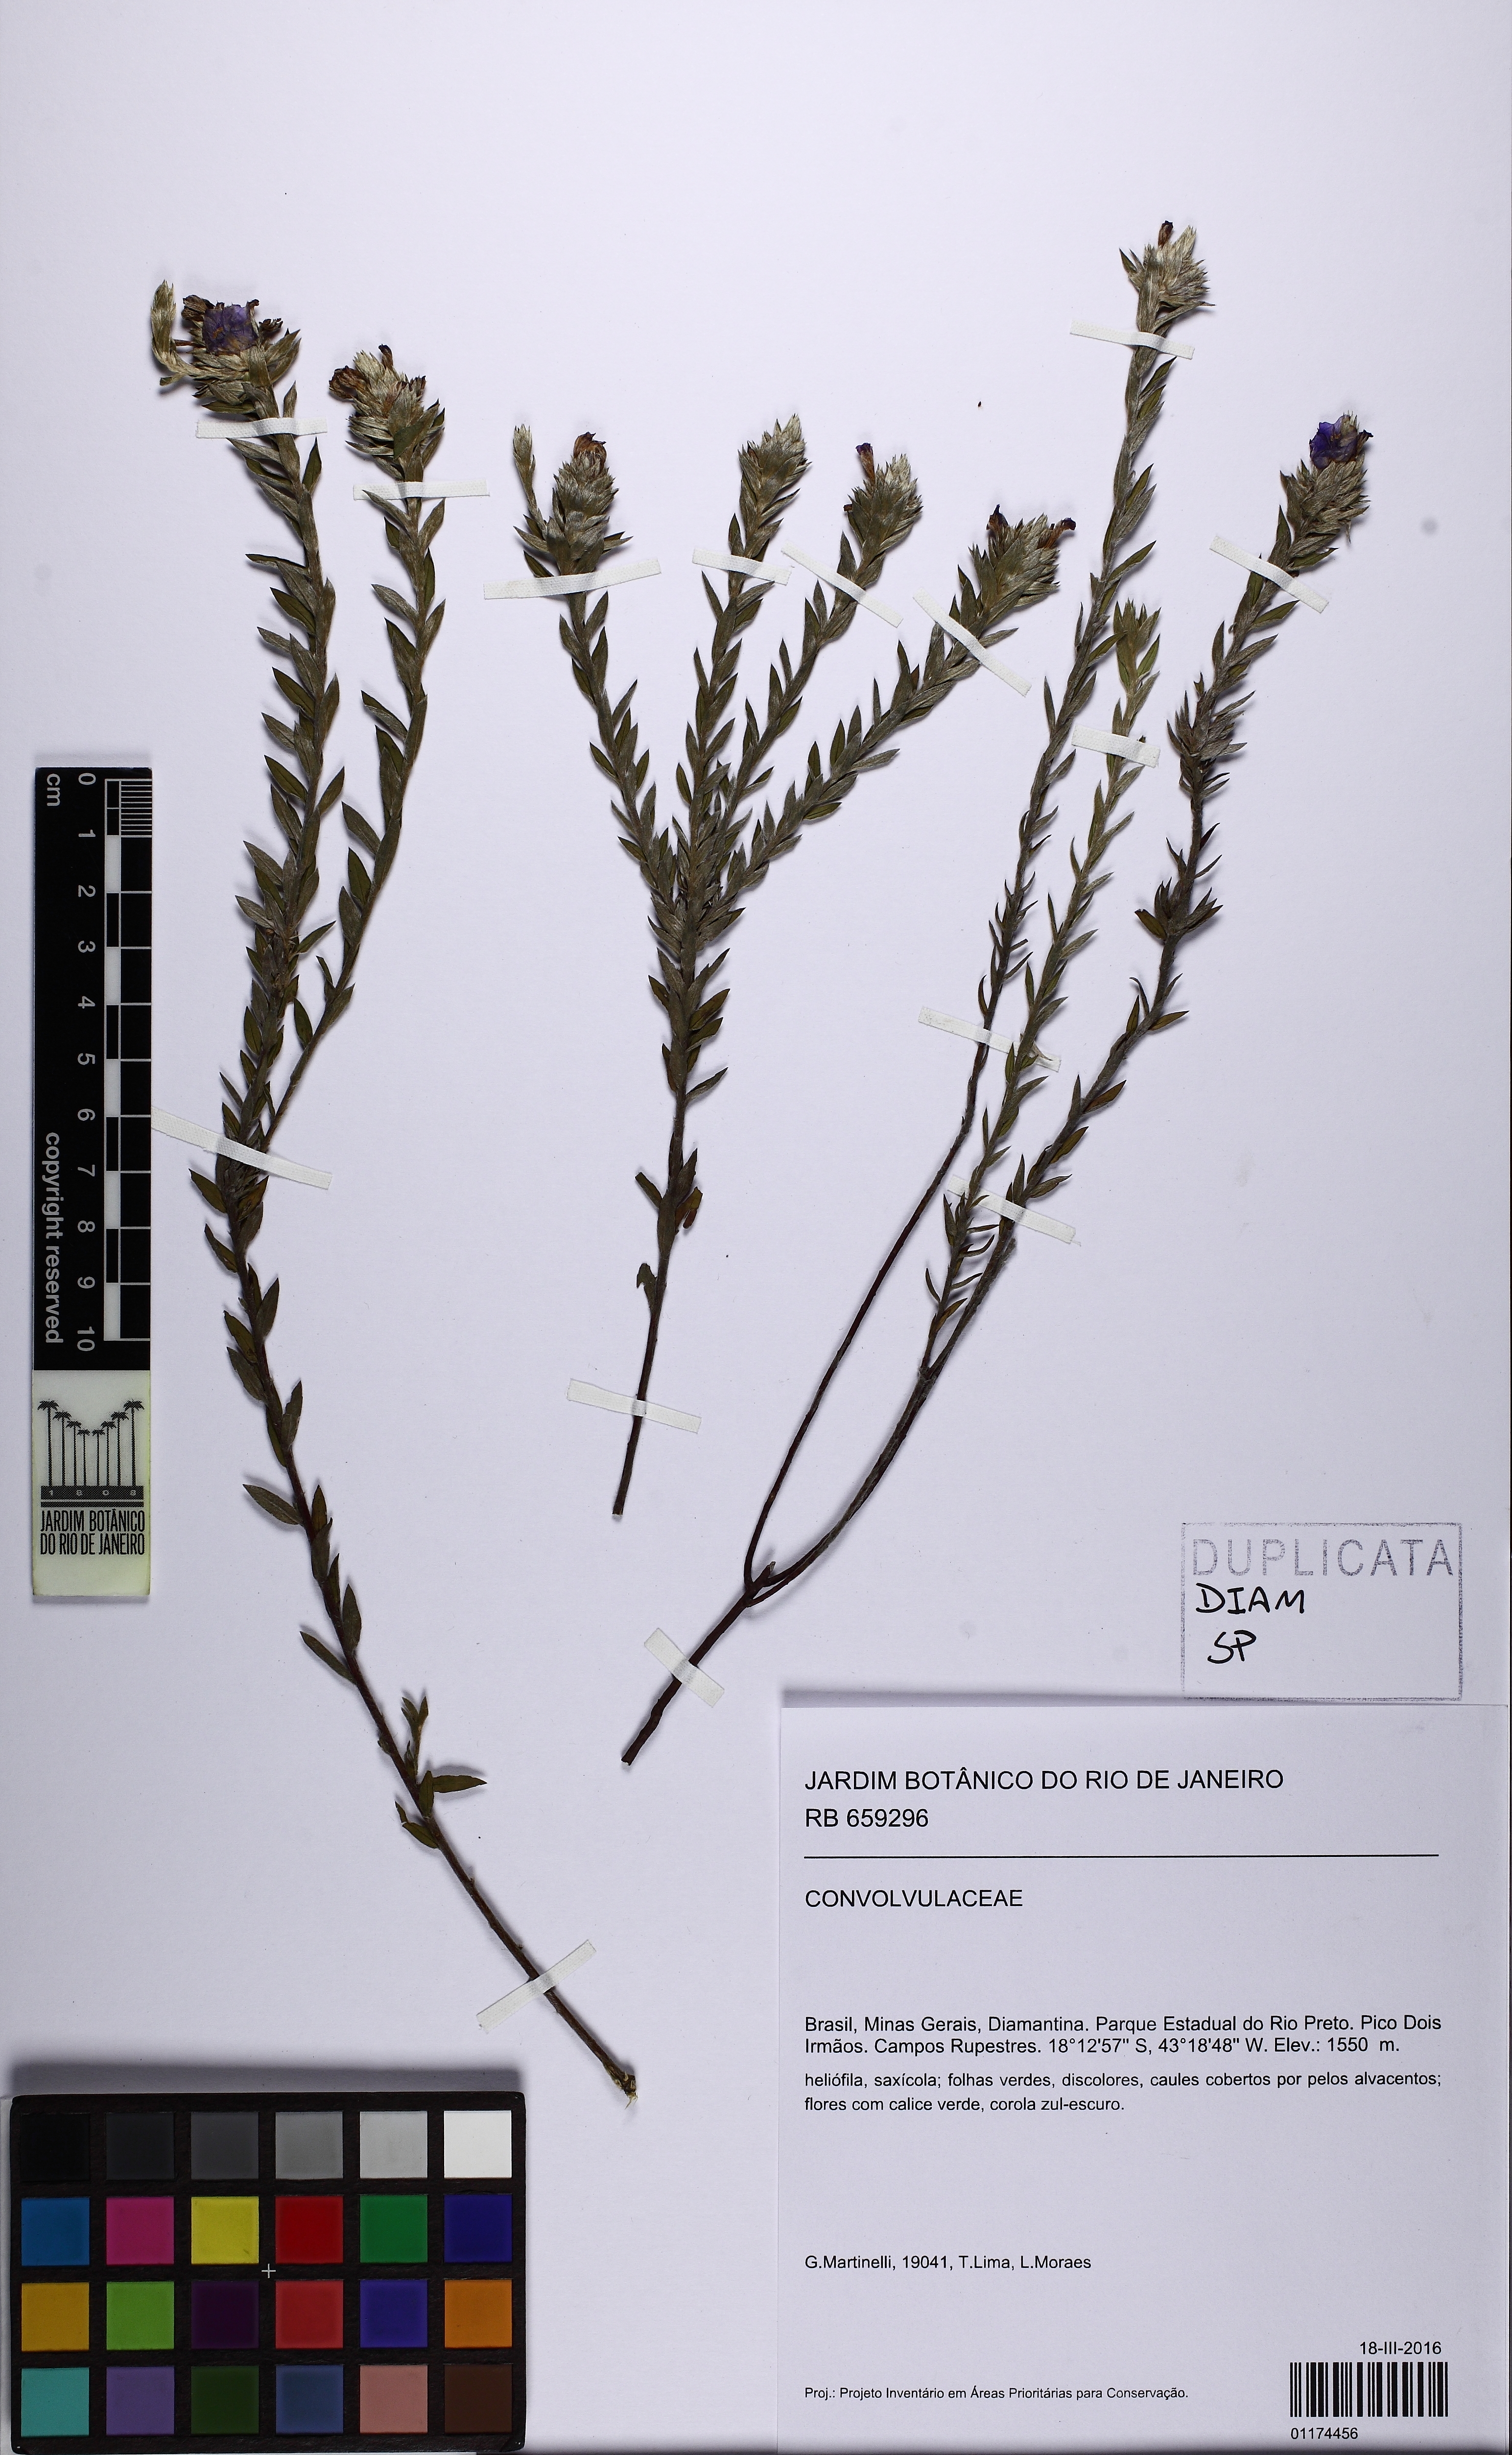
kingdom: Plantae
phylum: Tracheophyta
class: Magnoliopsida
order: Solanales
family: Convolvulaceae
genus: Evolvulus
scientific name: Evolvulus kramerioides
